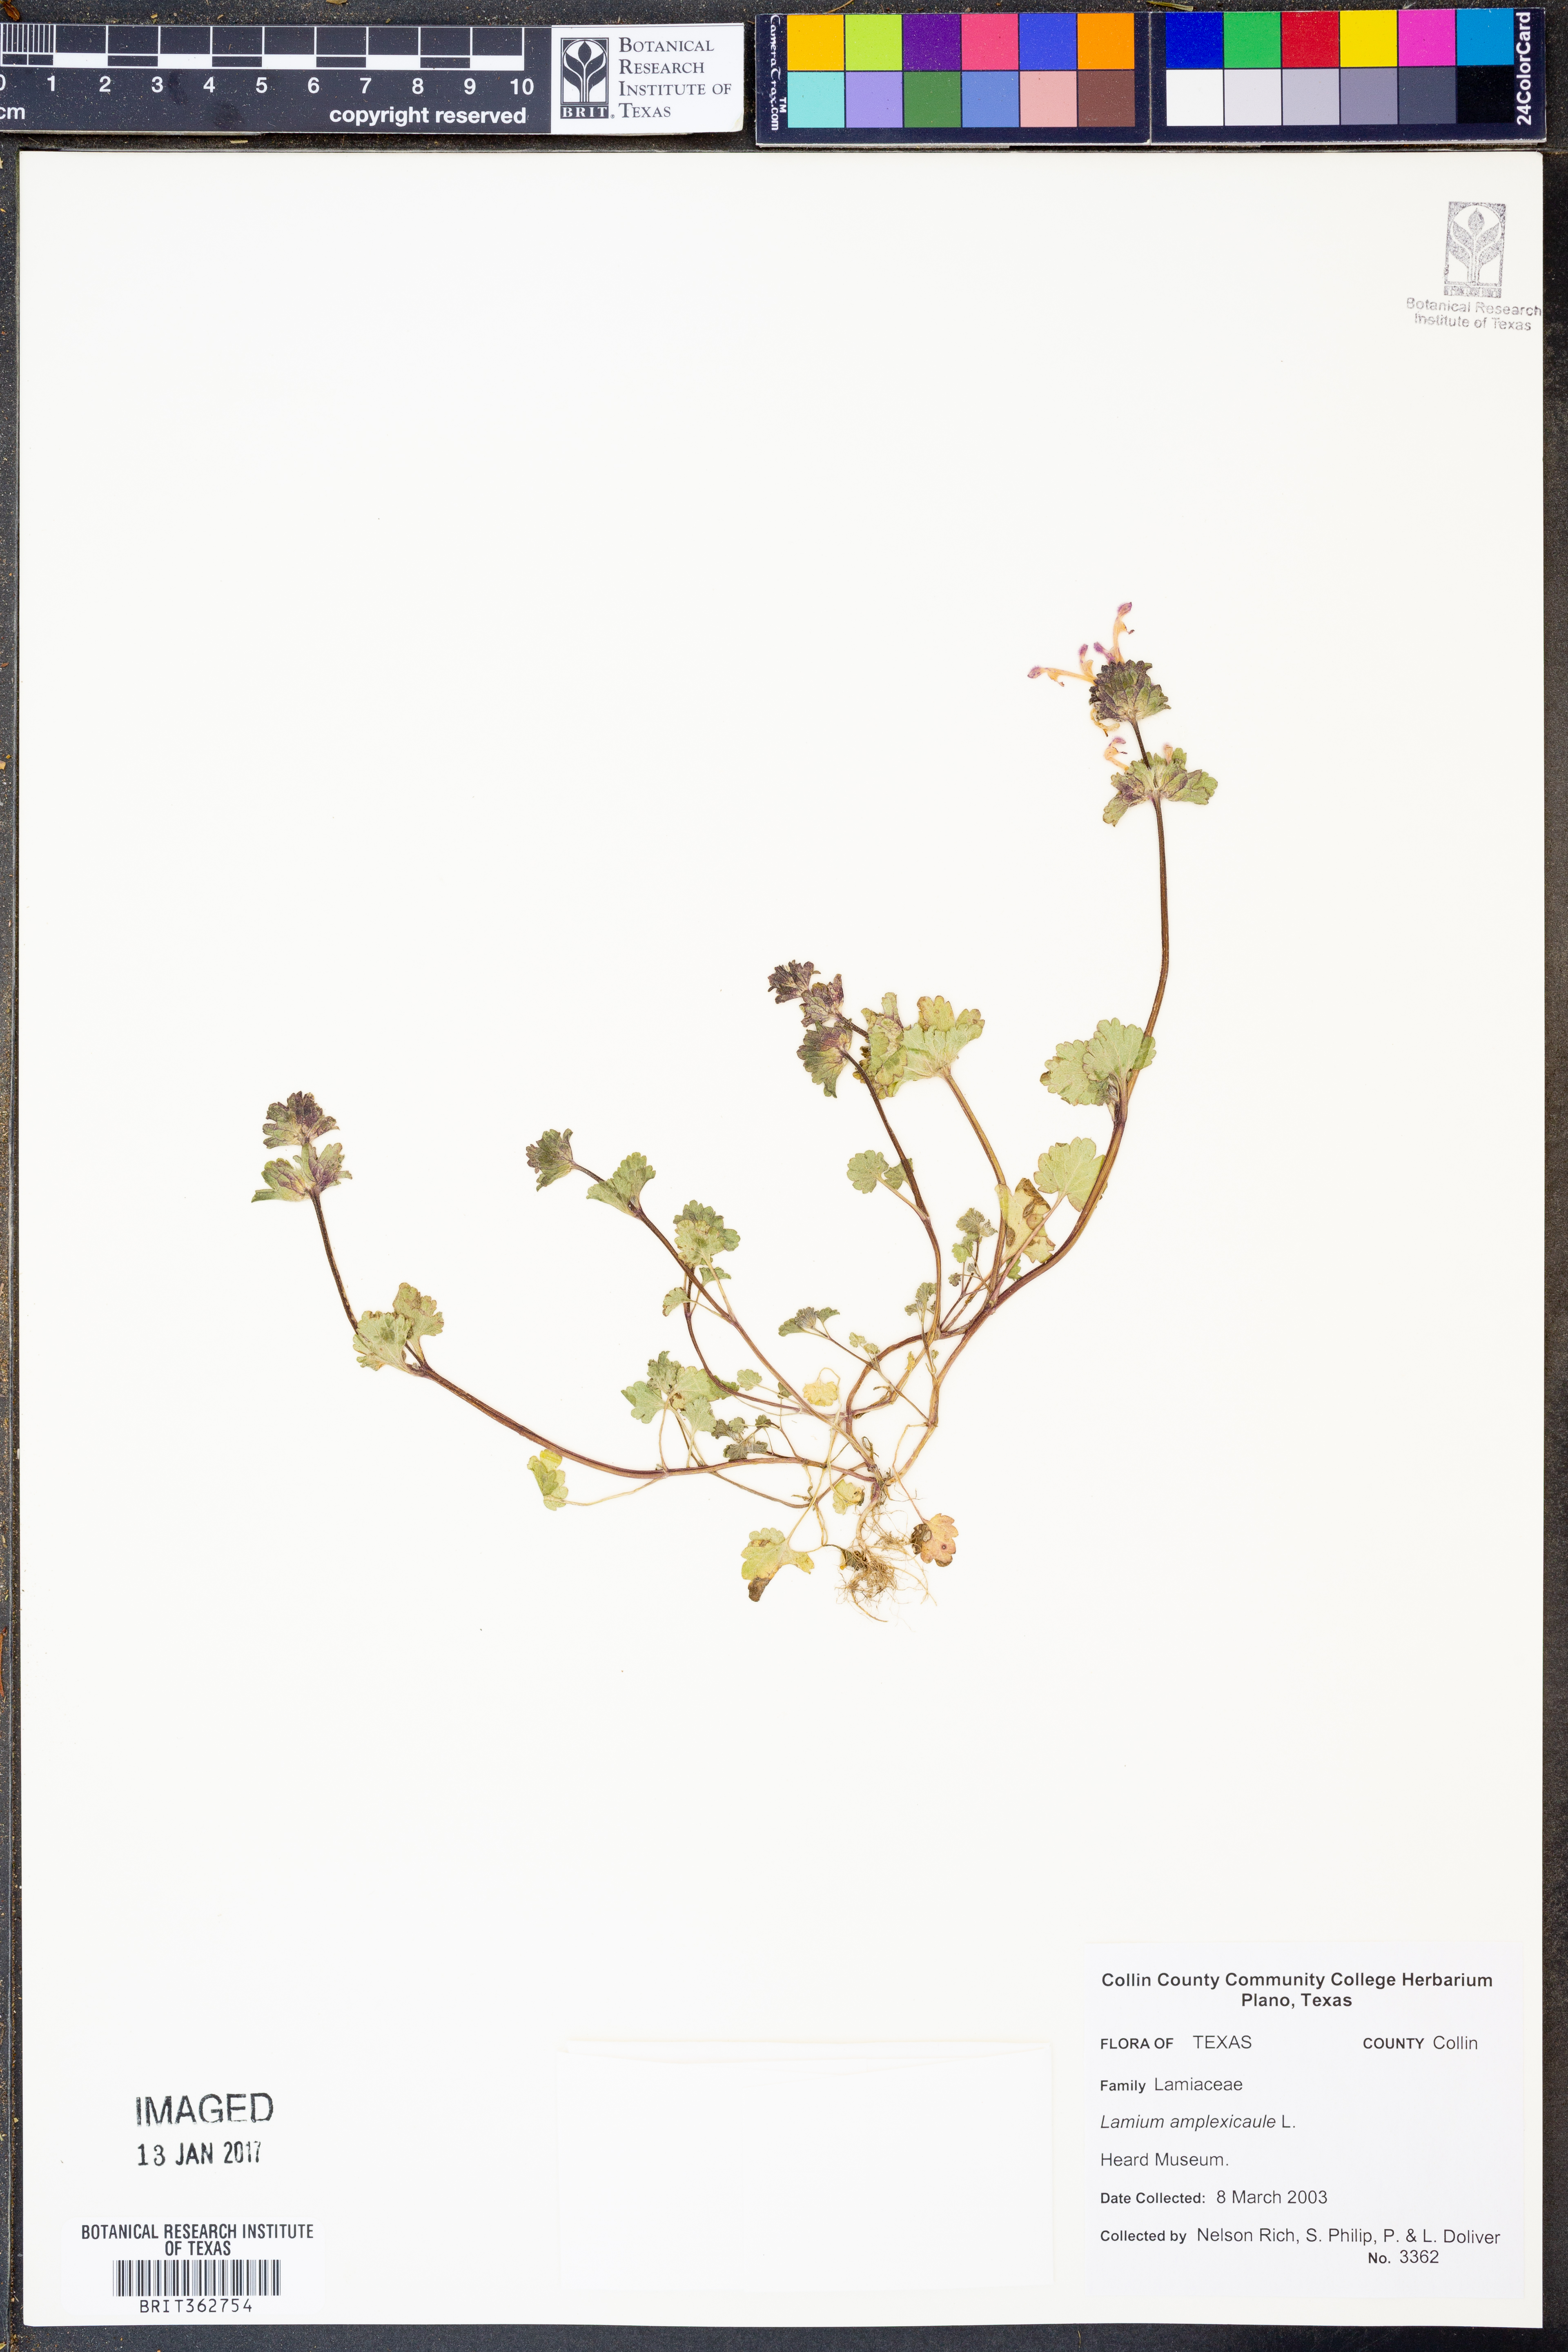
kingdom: Plantae
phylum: Tracheophyta
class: Magnoliopsida
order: Lamiales
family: Lamiaceae
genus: Lamium
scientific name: Lamium amplexicaule
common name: Henbit dead-nettle
